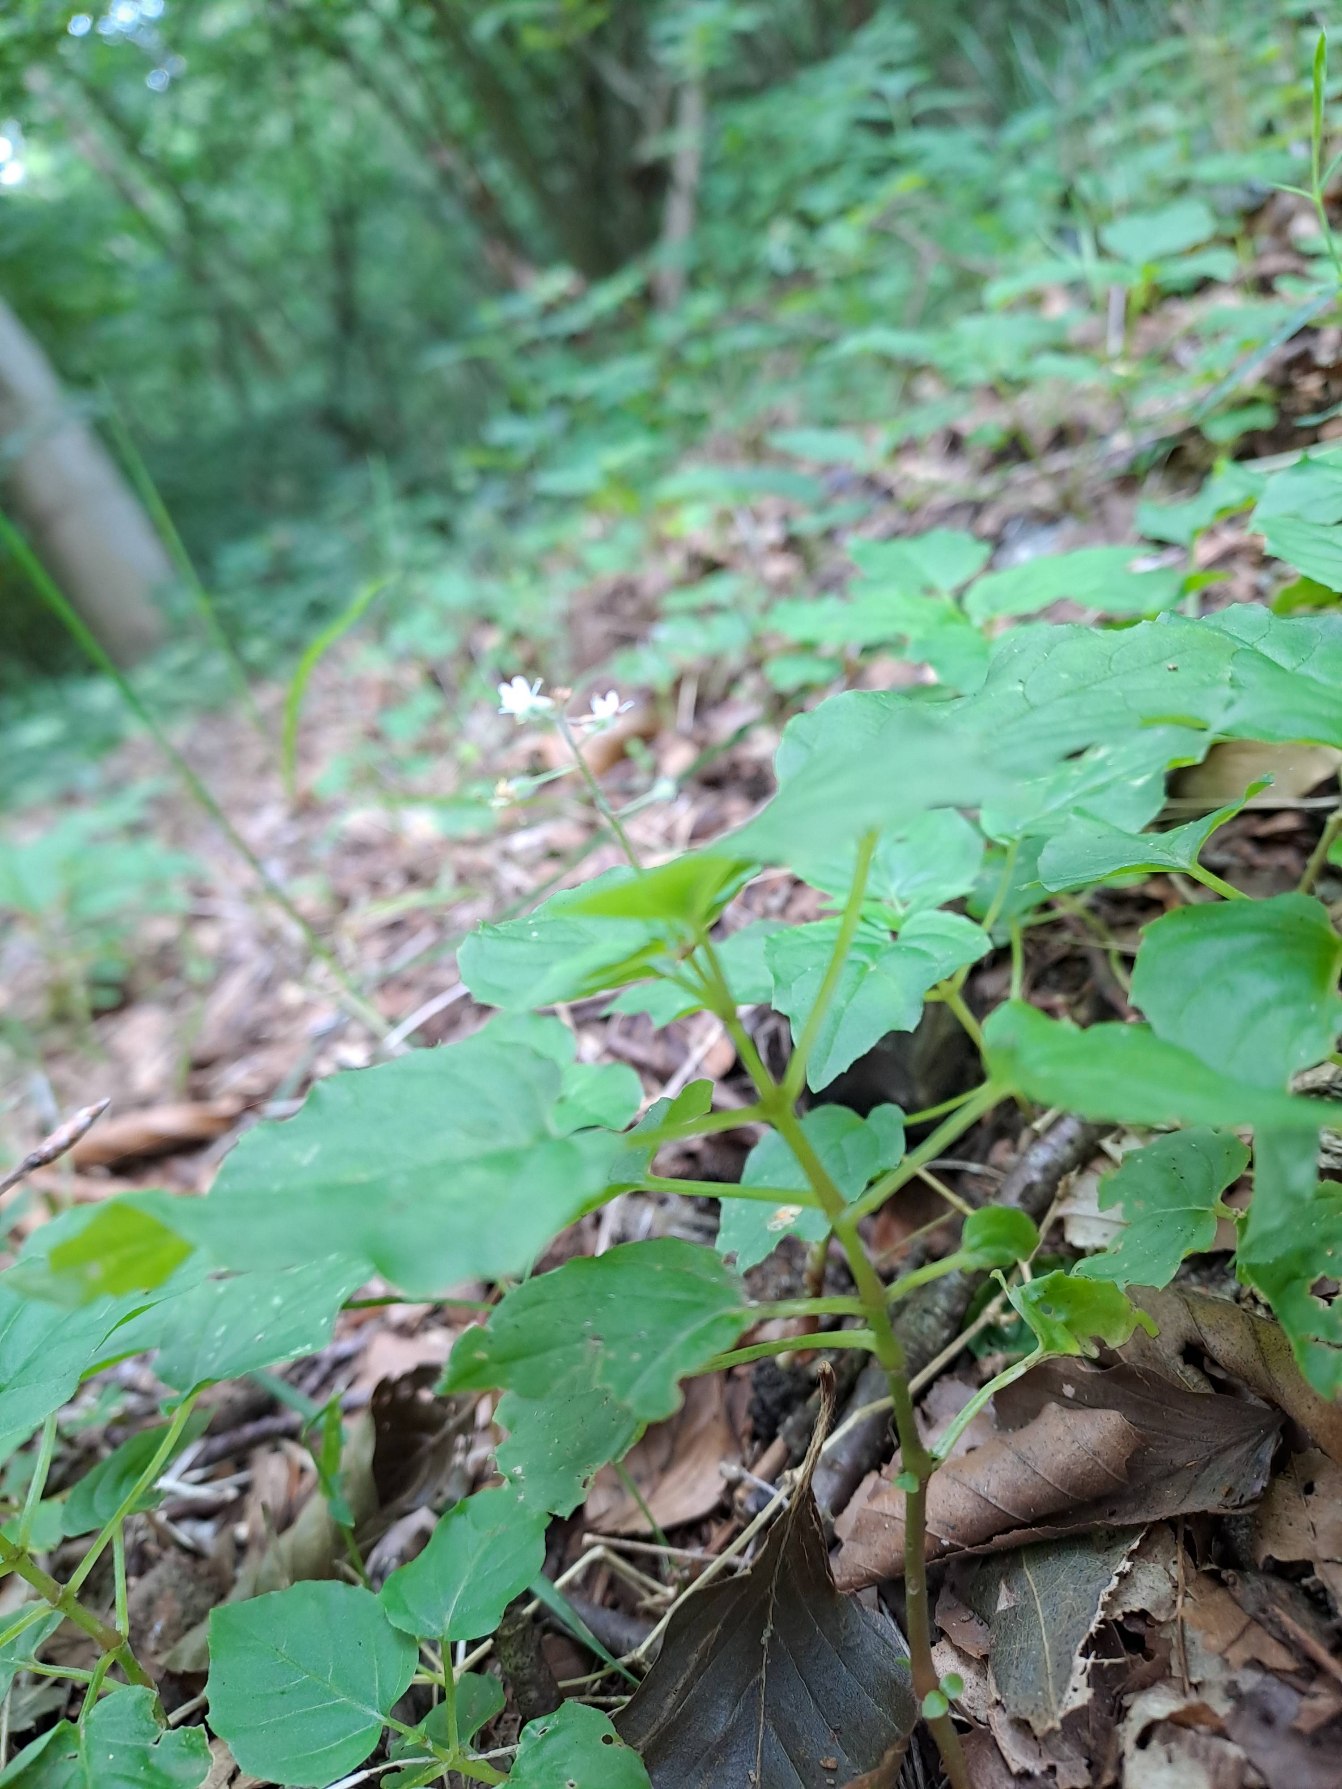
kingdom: Plantae
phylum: Tracheophyta
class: Magnoliopsida
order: Myrtales
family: Onagraceae
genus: Circaea
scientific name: Circaea intermedia
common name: Spidsbladet steffensurt
